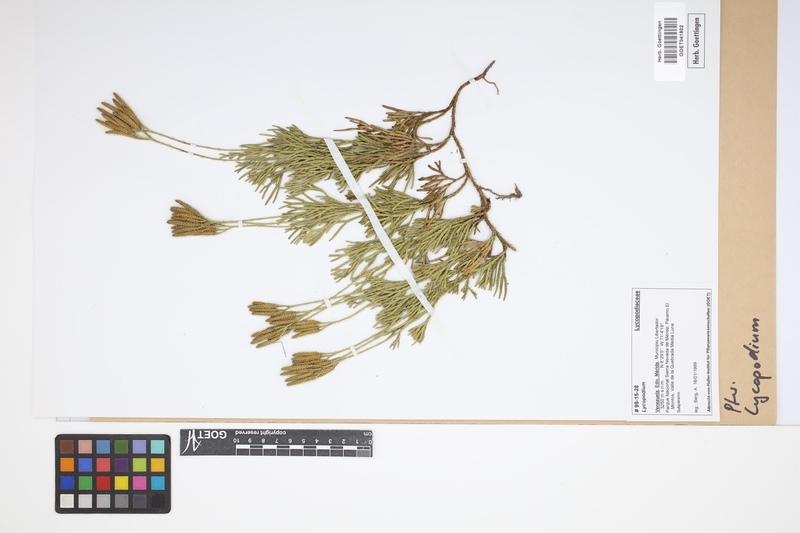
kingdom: Plantae
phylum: Tracheophyta
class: Lycopodiopsida
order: Lycopodiales
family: Lycopodiaceae
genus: Lycopodium
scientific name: Lycopodium
